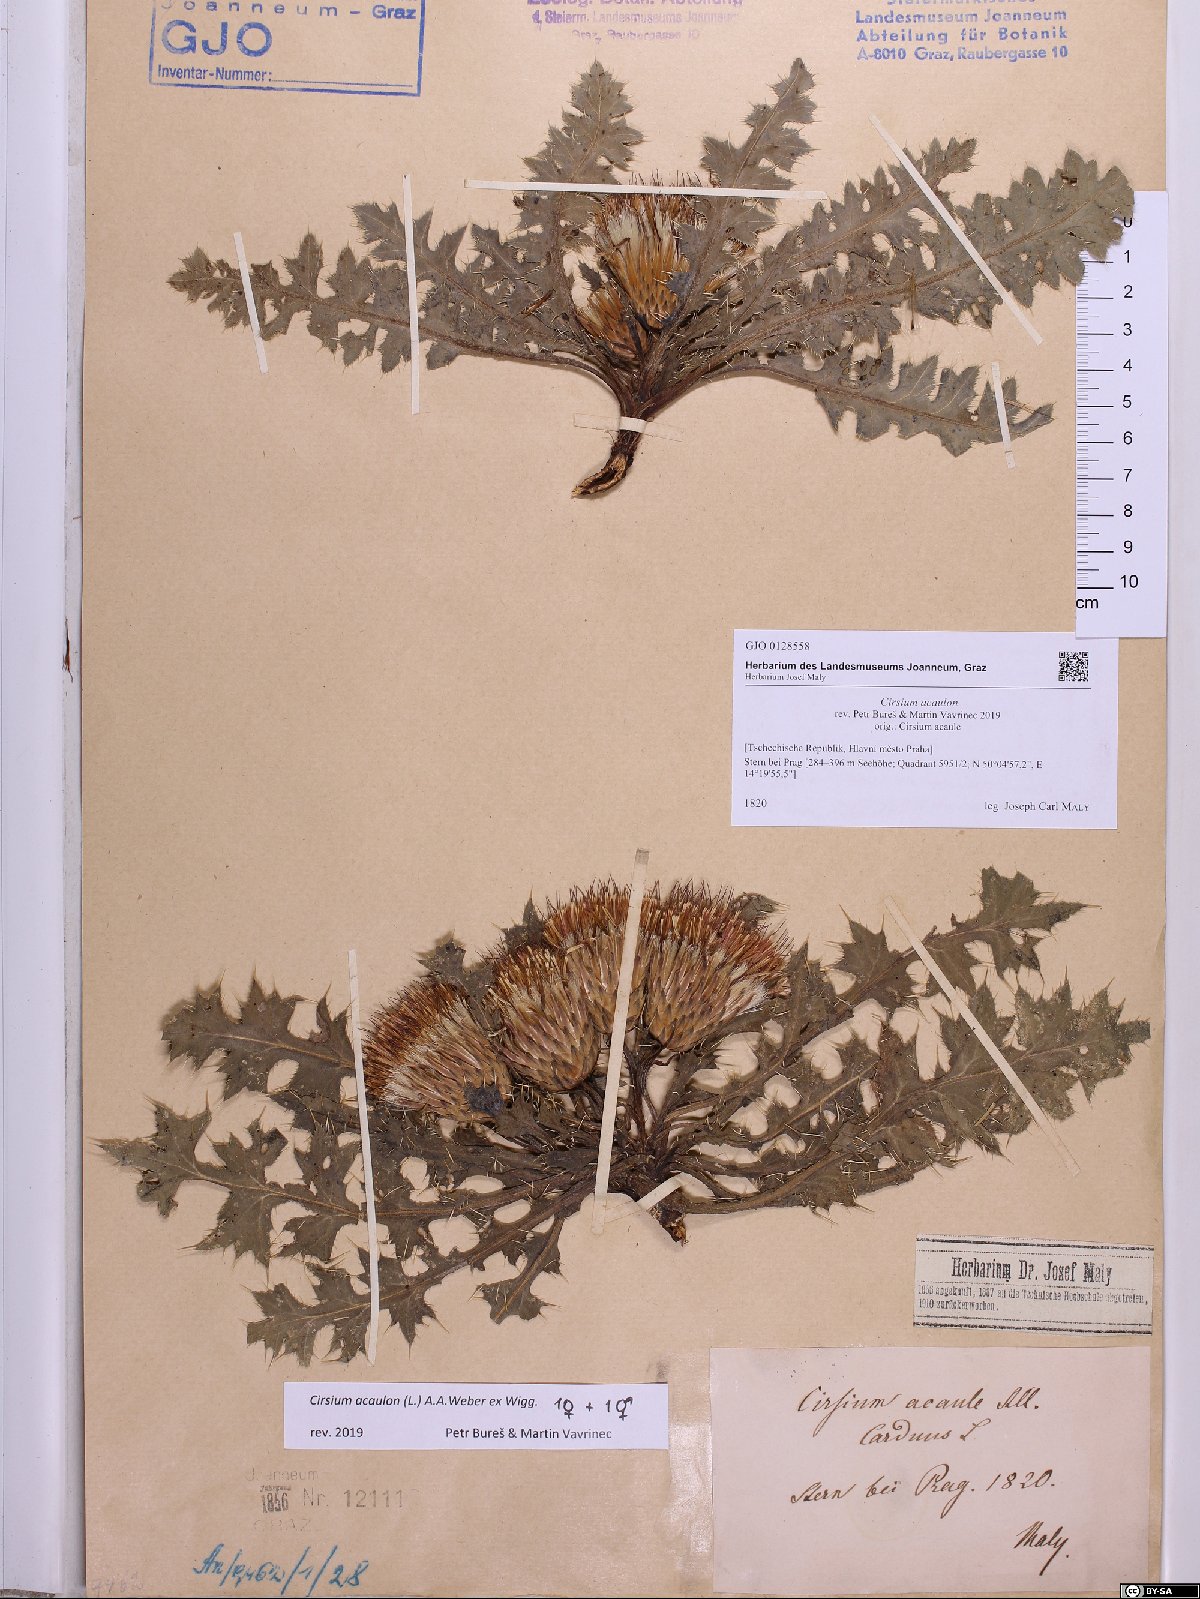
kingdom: Plantae
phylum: Tracheophyta
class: Magnoliopsida
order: Asterales
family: Asteraceae
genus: Cirsium
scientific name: Cirsium acaulon
